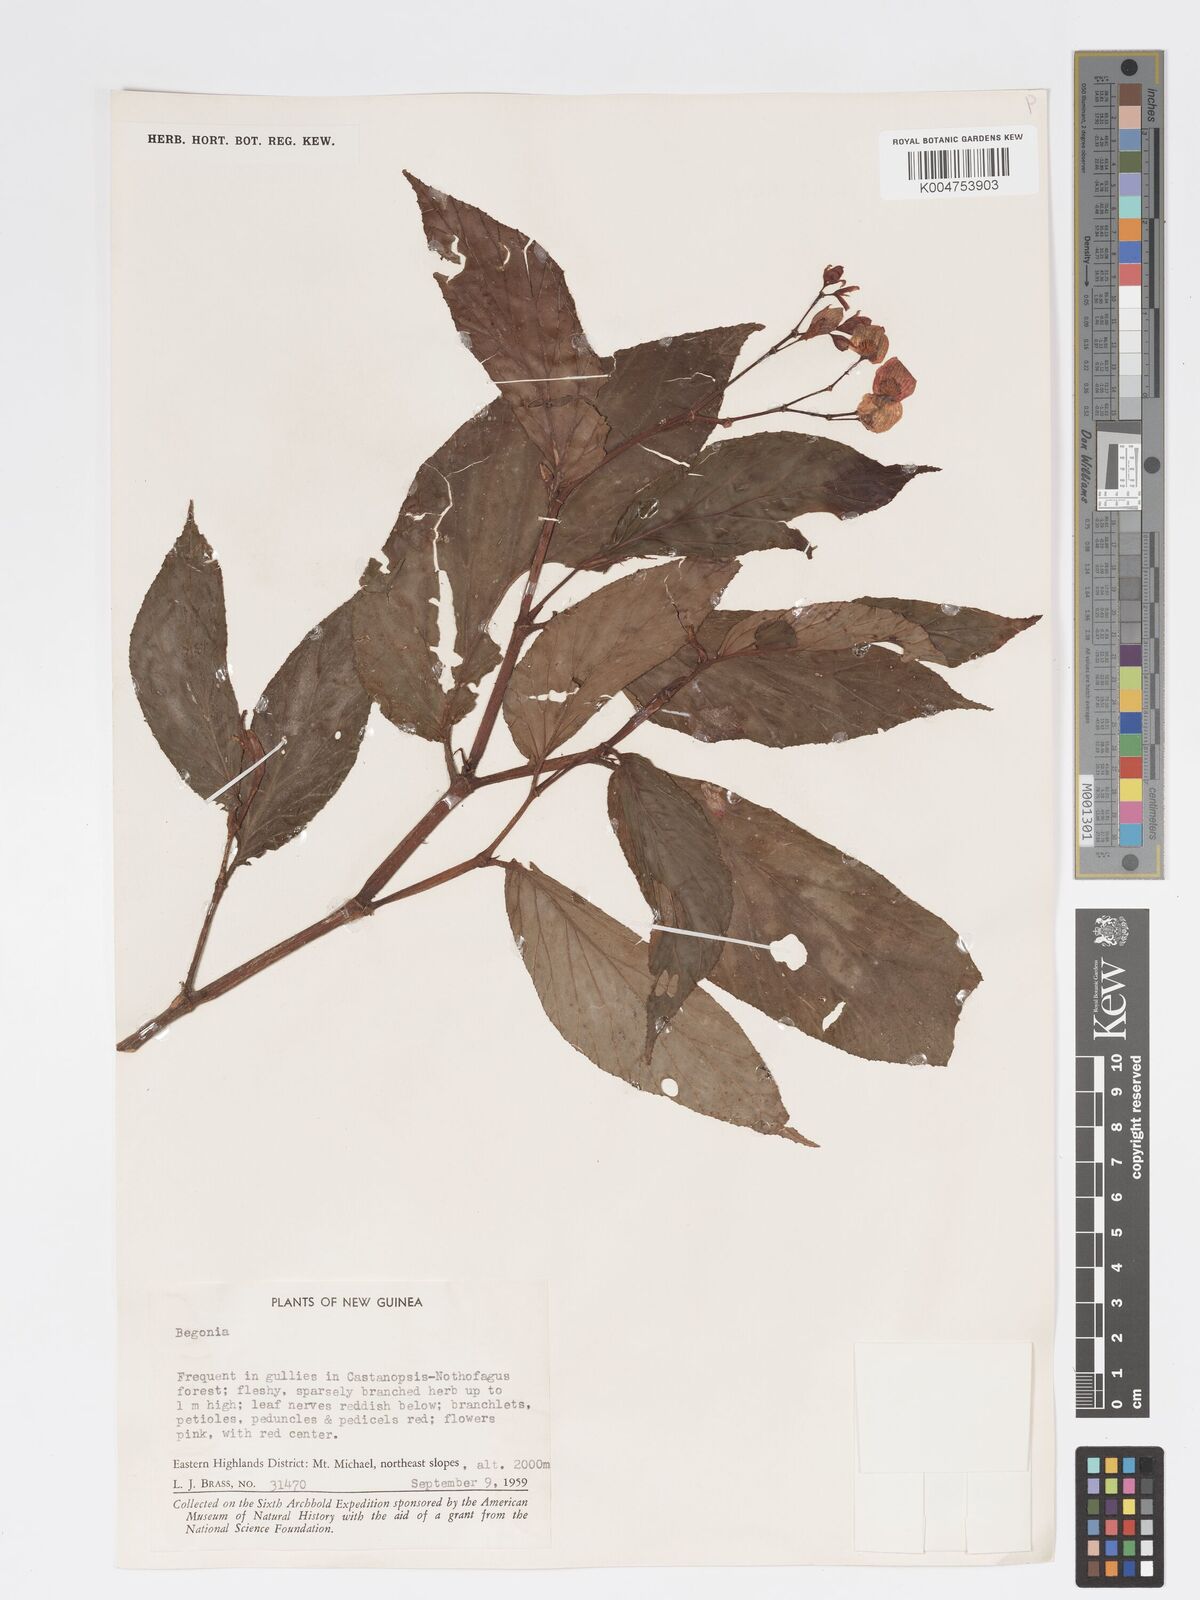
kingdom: Plantae
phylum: Tracheophyta
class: Magnoliopsida
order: Cucurbitales
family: Begoniaceae
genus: Begonia
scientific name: Begonia
